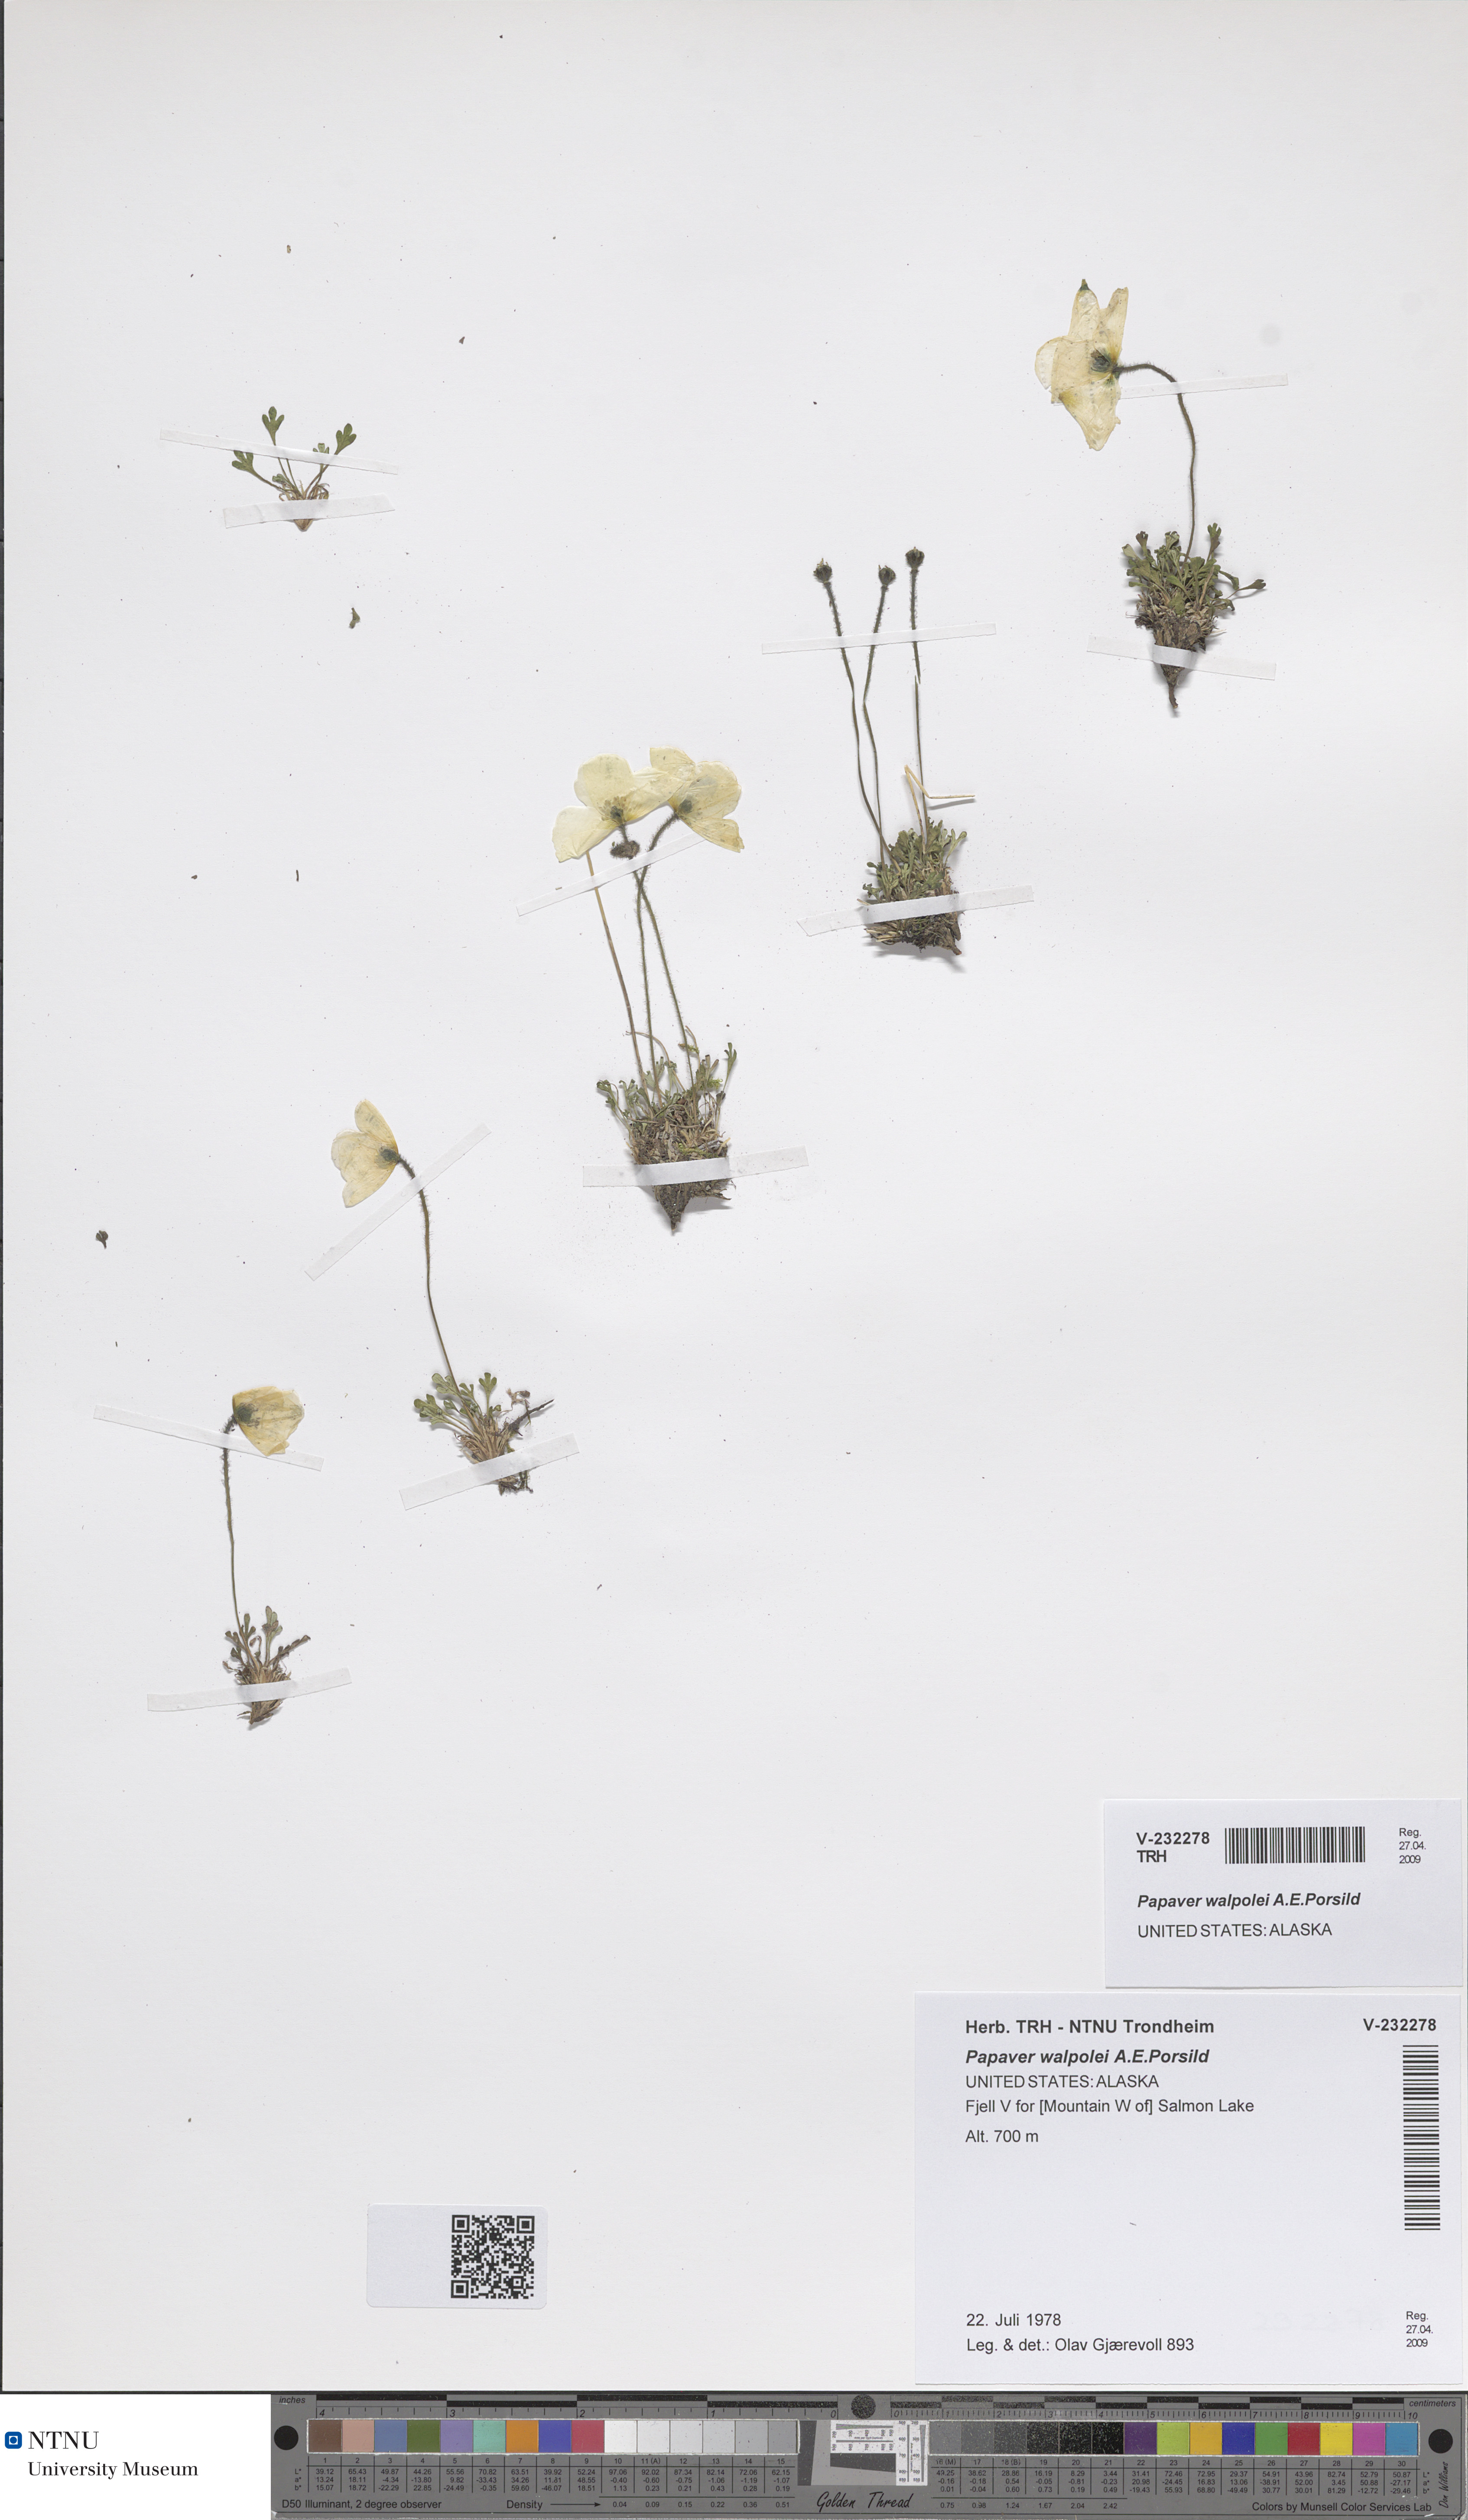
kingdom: Plantae
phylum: Tracheophyta
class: Magnoliopsida
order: Ranunculales
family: Papaveraceae
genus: Papaver
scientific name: Papaver walpolei
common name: Walpole's poppy
